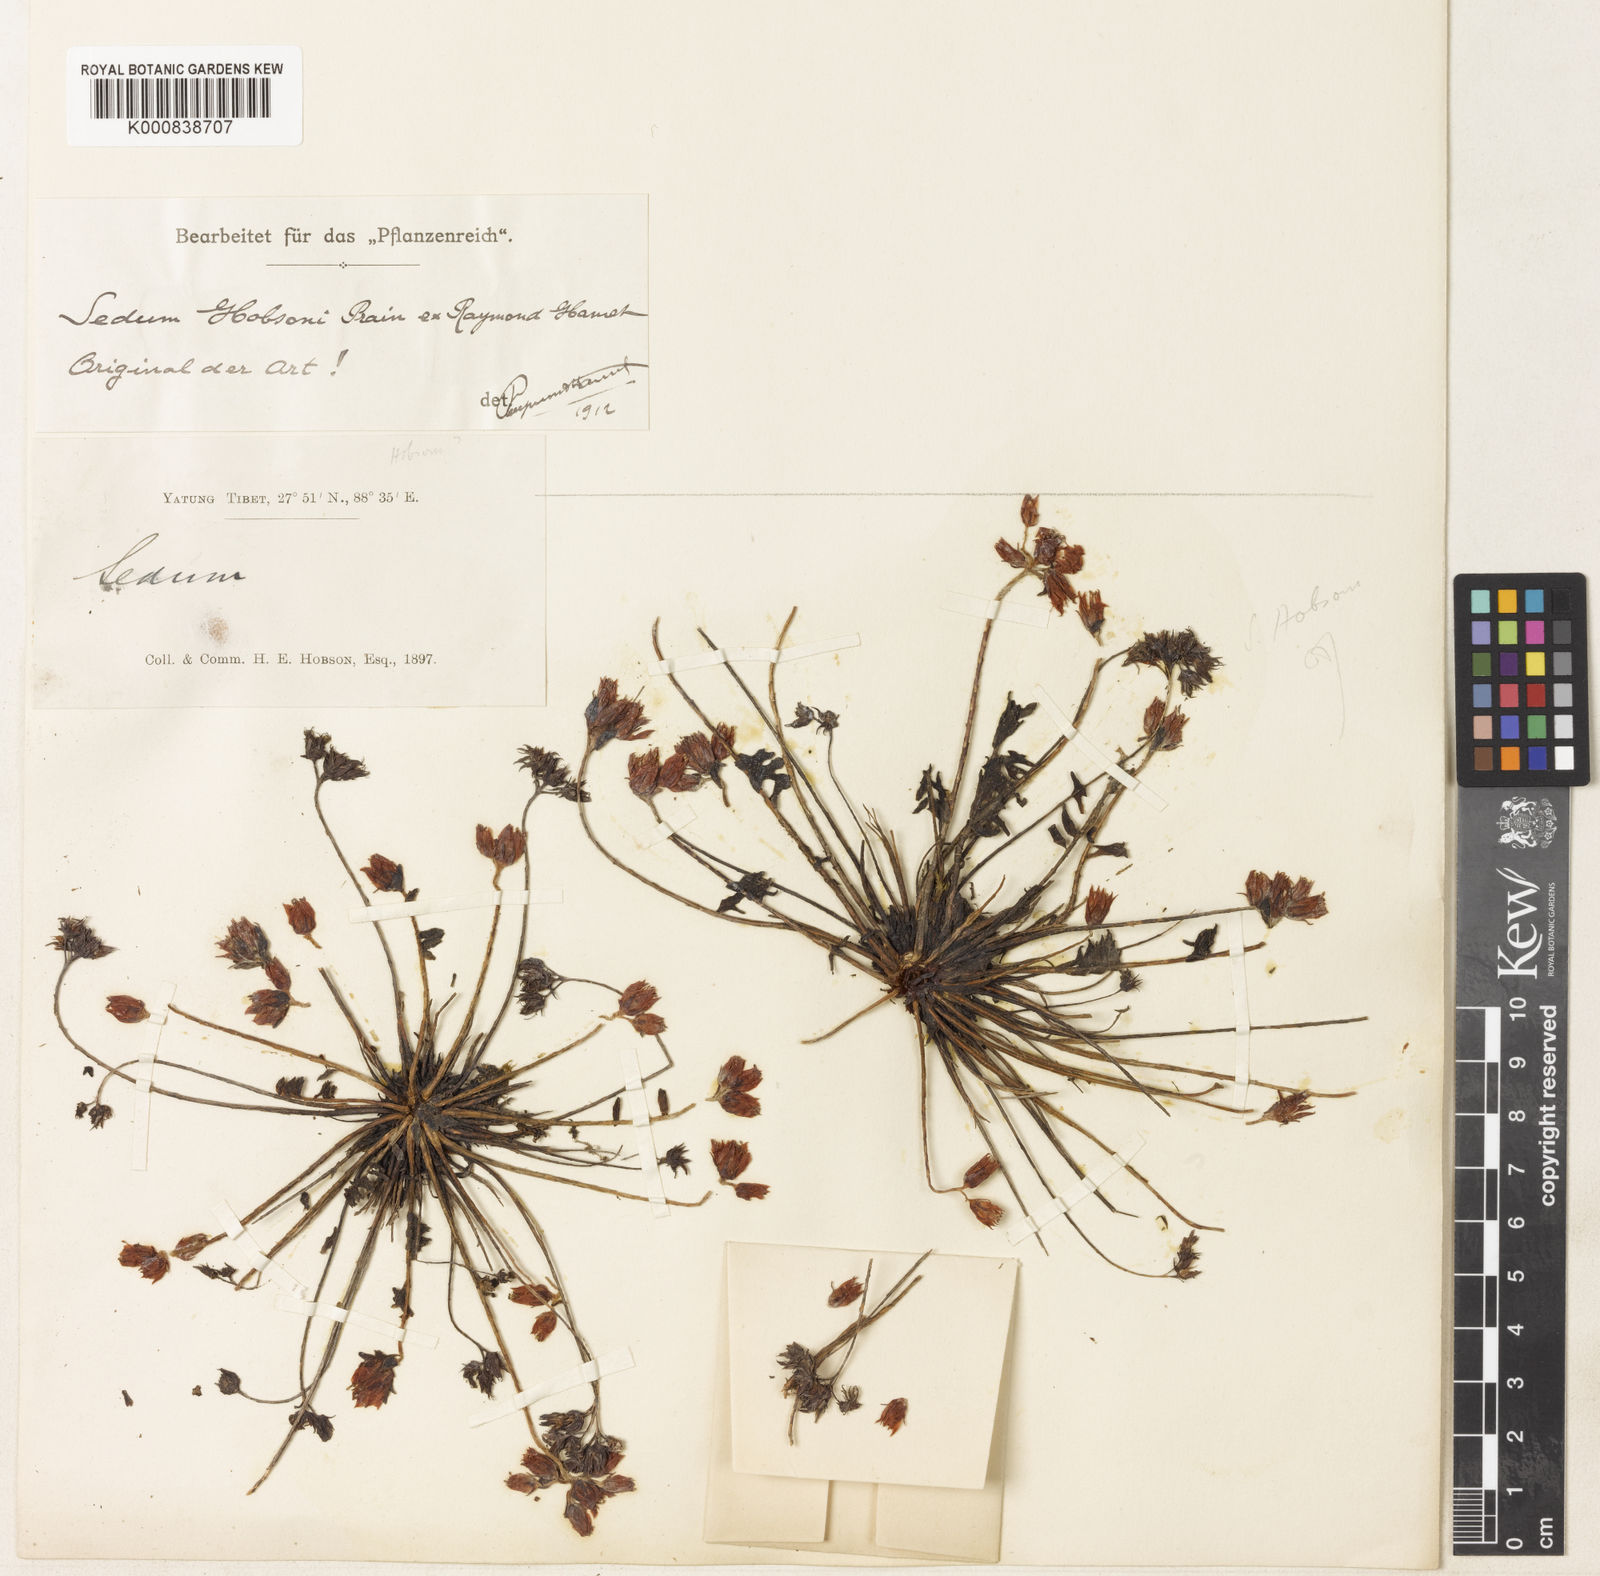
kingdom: Plantae
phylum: Tracheophyta
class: Magnoliopsida
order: Saxifragales
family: Crassulaceae
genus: Rhodiola
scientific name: Rhodiola hobsonii
